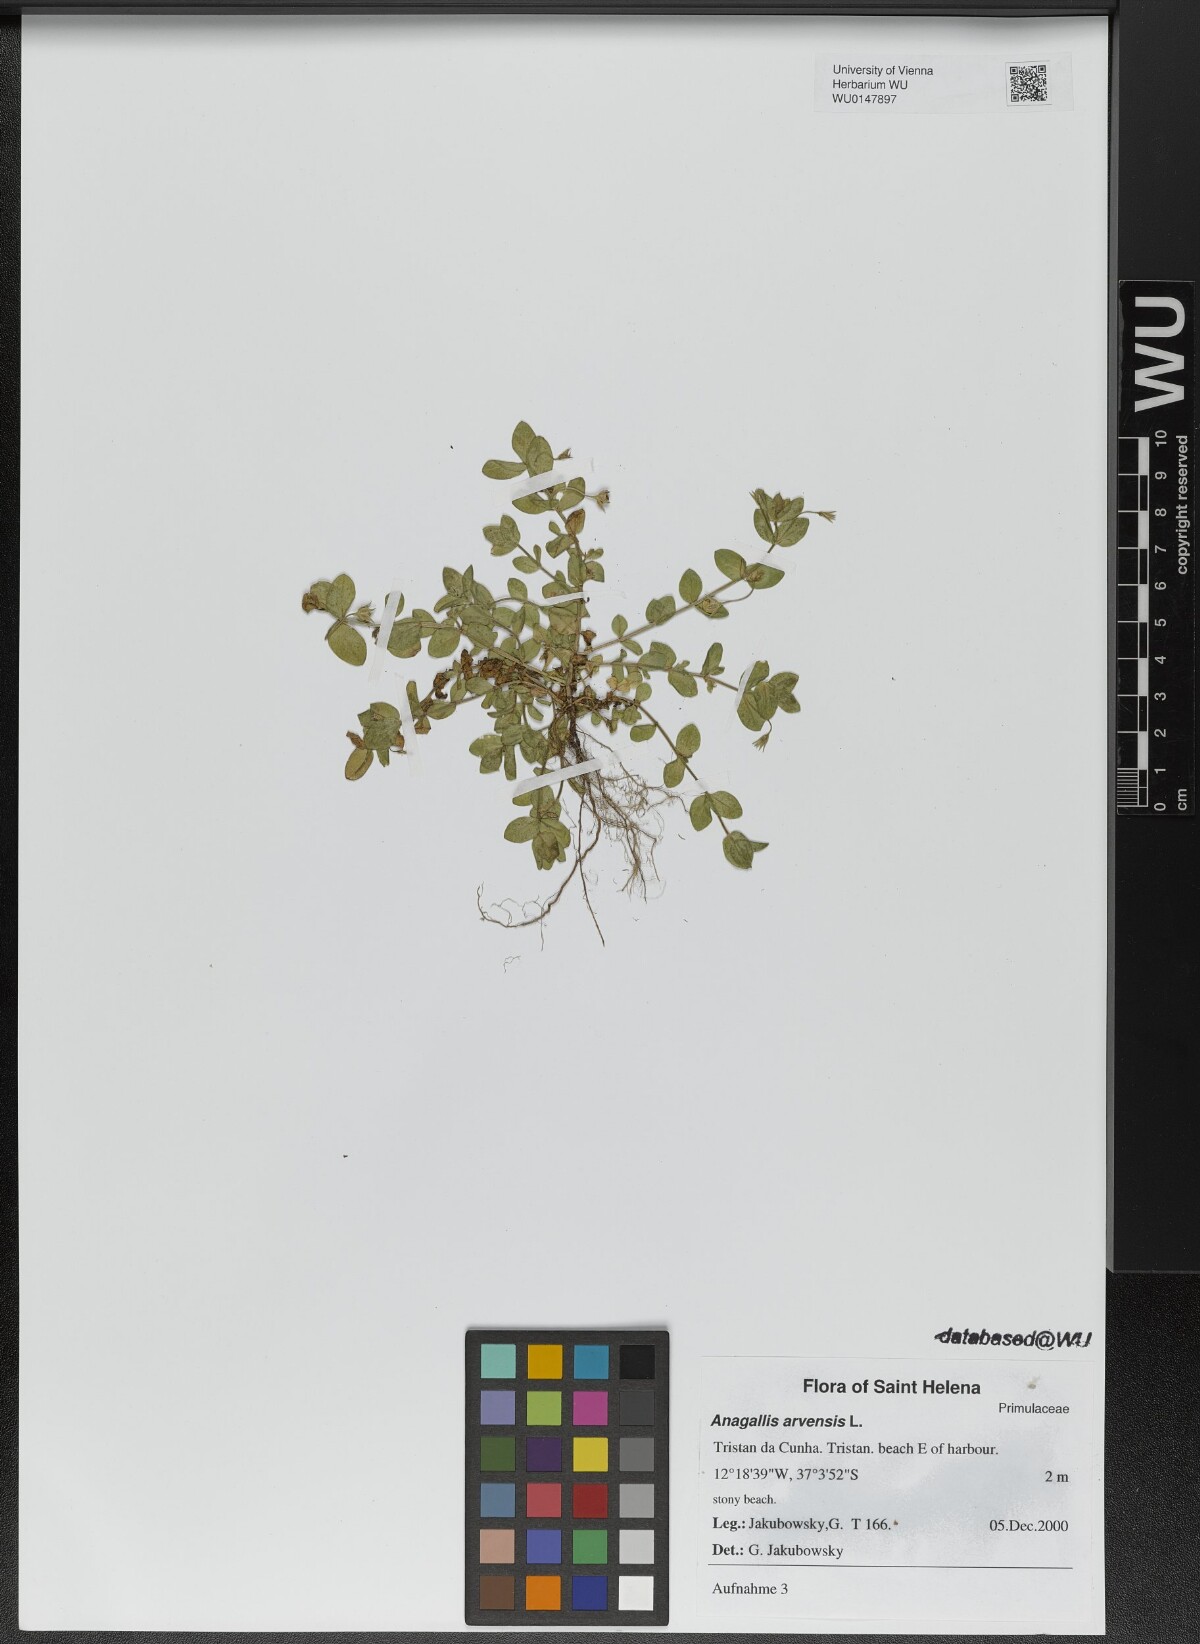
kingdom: Plantae
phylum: Tracheophyta
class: Magnoliopsida
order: Ericales
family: Primulaceae
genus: Lysimachia
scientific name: Lysimachia arvensis
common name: Scarlet pimpernel
